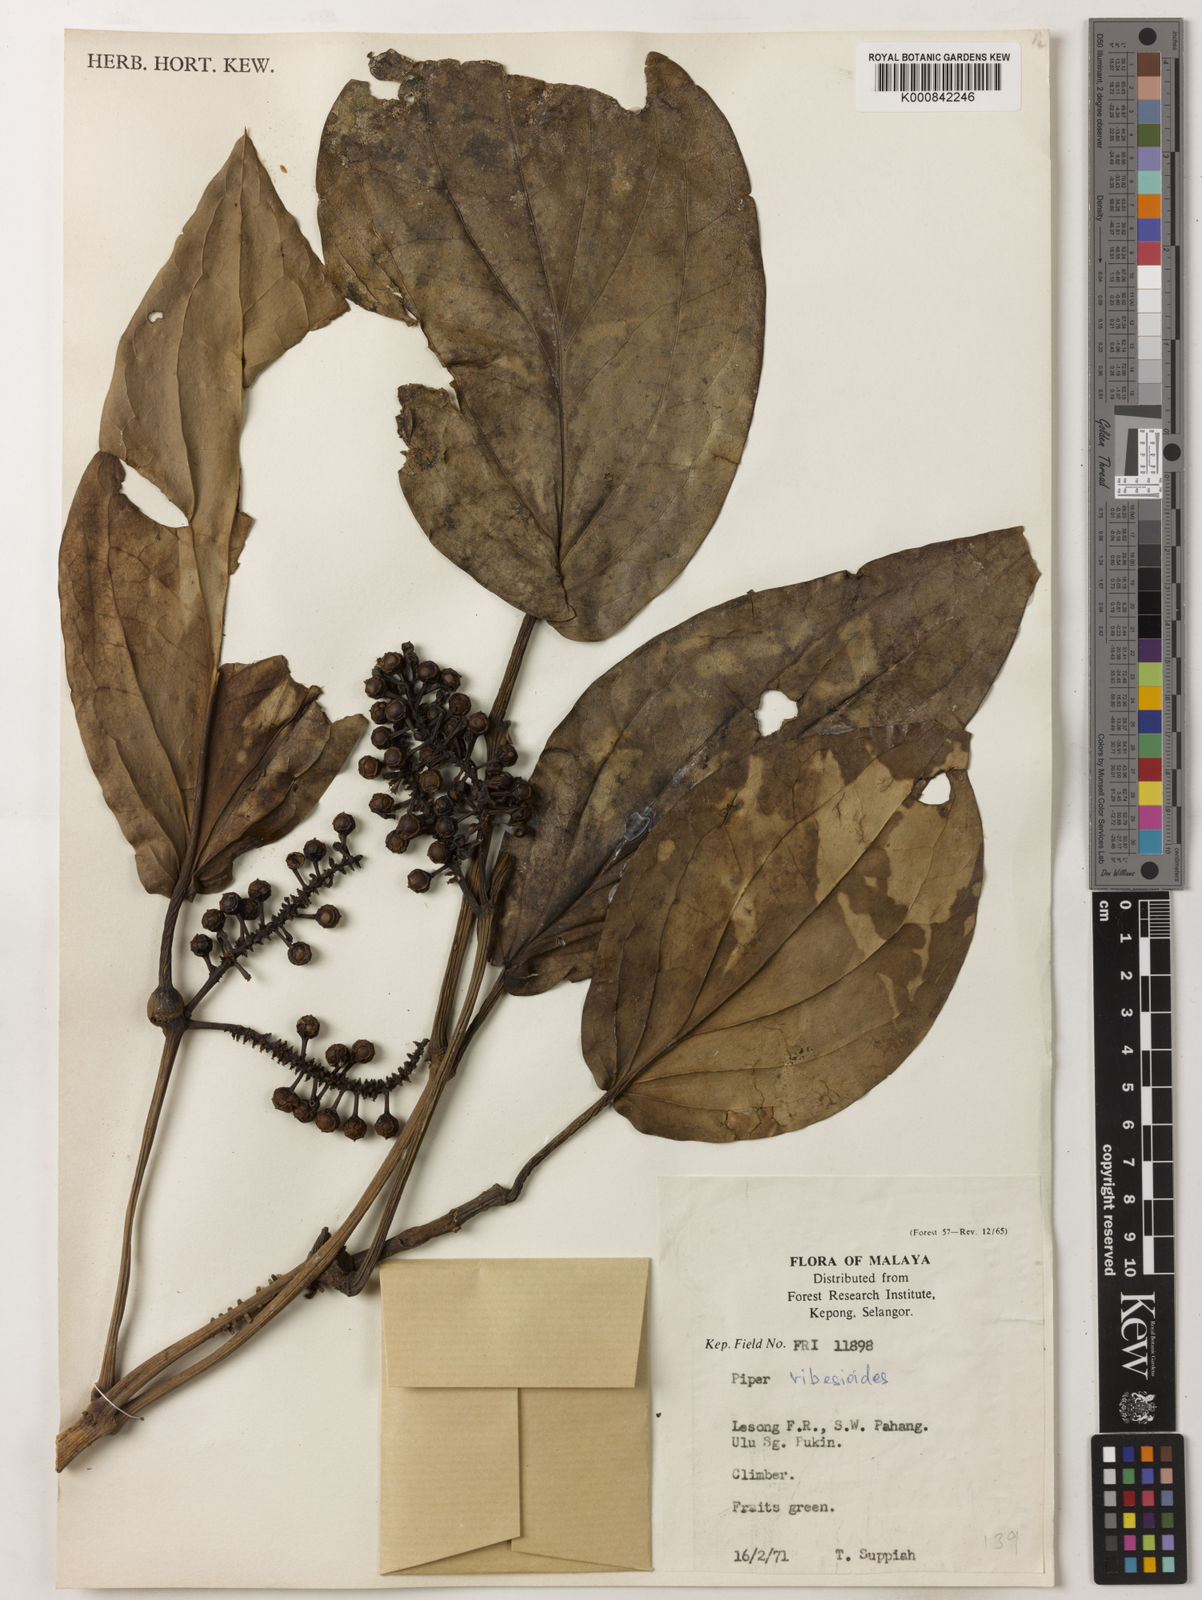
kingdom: Plantae
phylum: Tracheophyta
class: Magnoliopsida
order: Piperales
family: Piperaceae
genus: Piper
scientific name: Piper ribesioides
